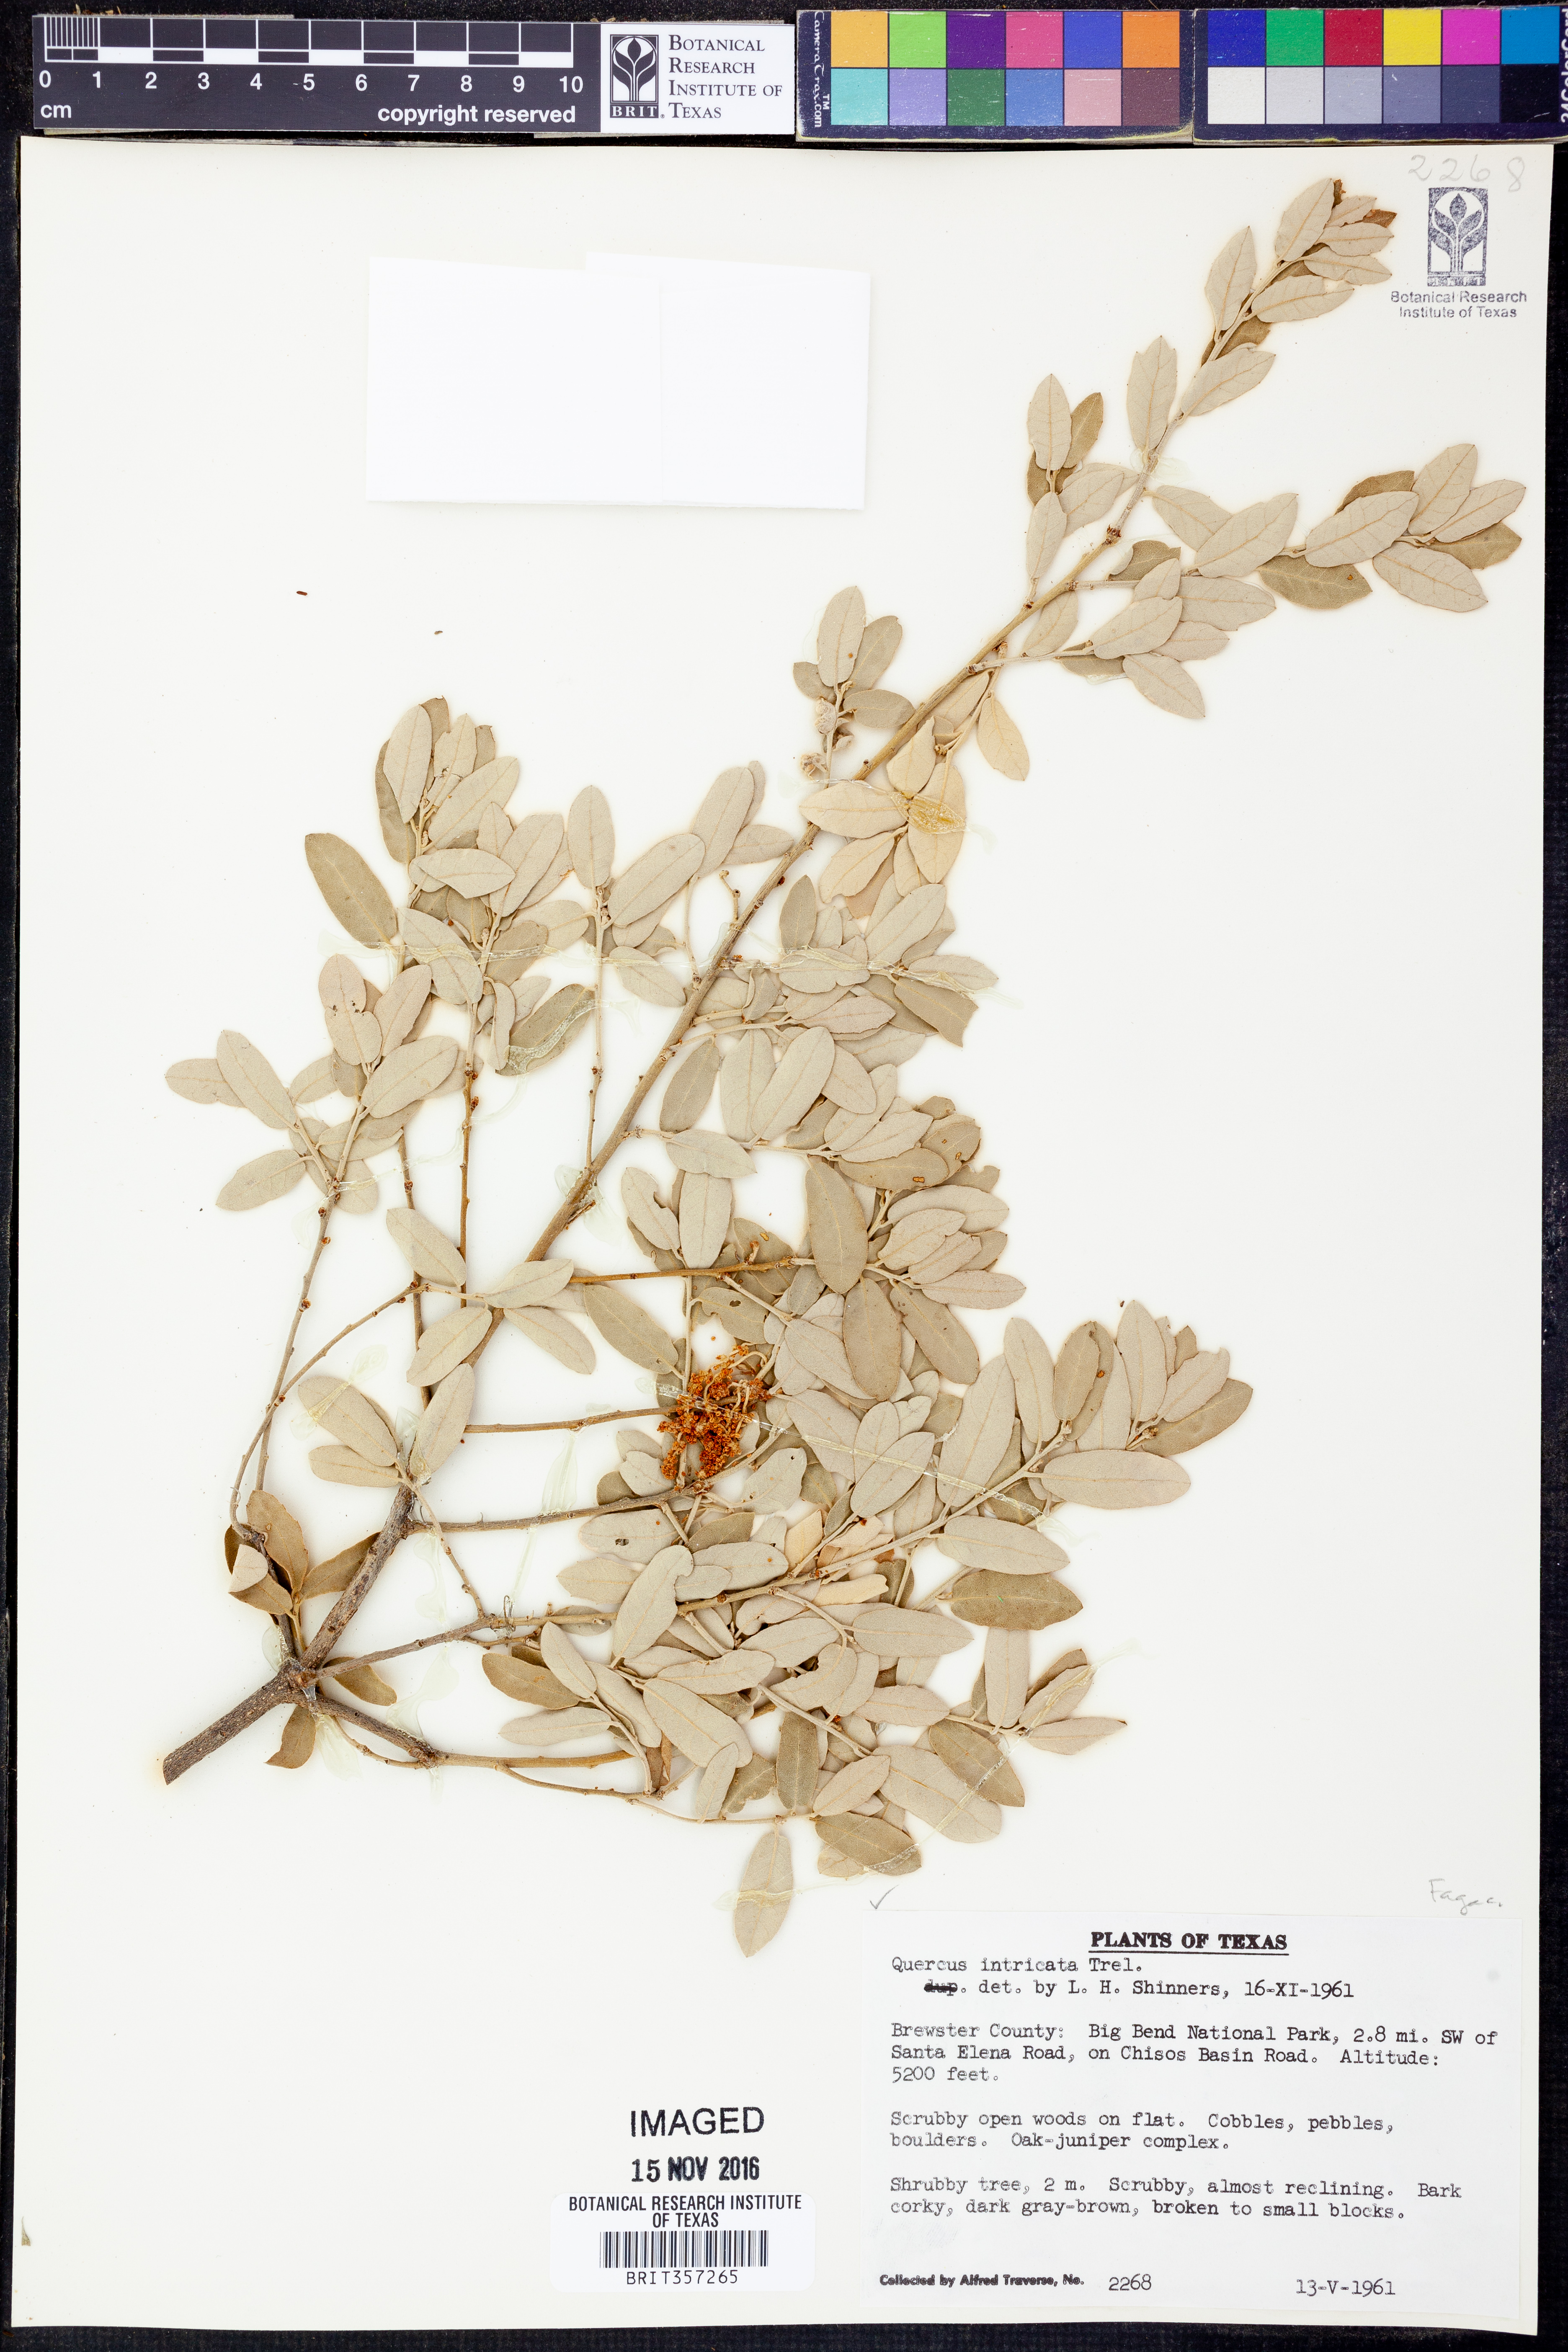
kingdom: Plantae
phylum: Tracheophyta
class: Magnoliopsida
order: Fagales
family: Fagaceae
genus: Quercus
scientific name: Quercus intricata
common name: Dwarf oak
